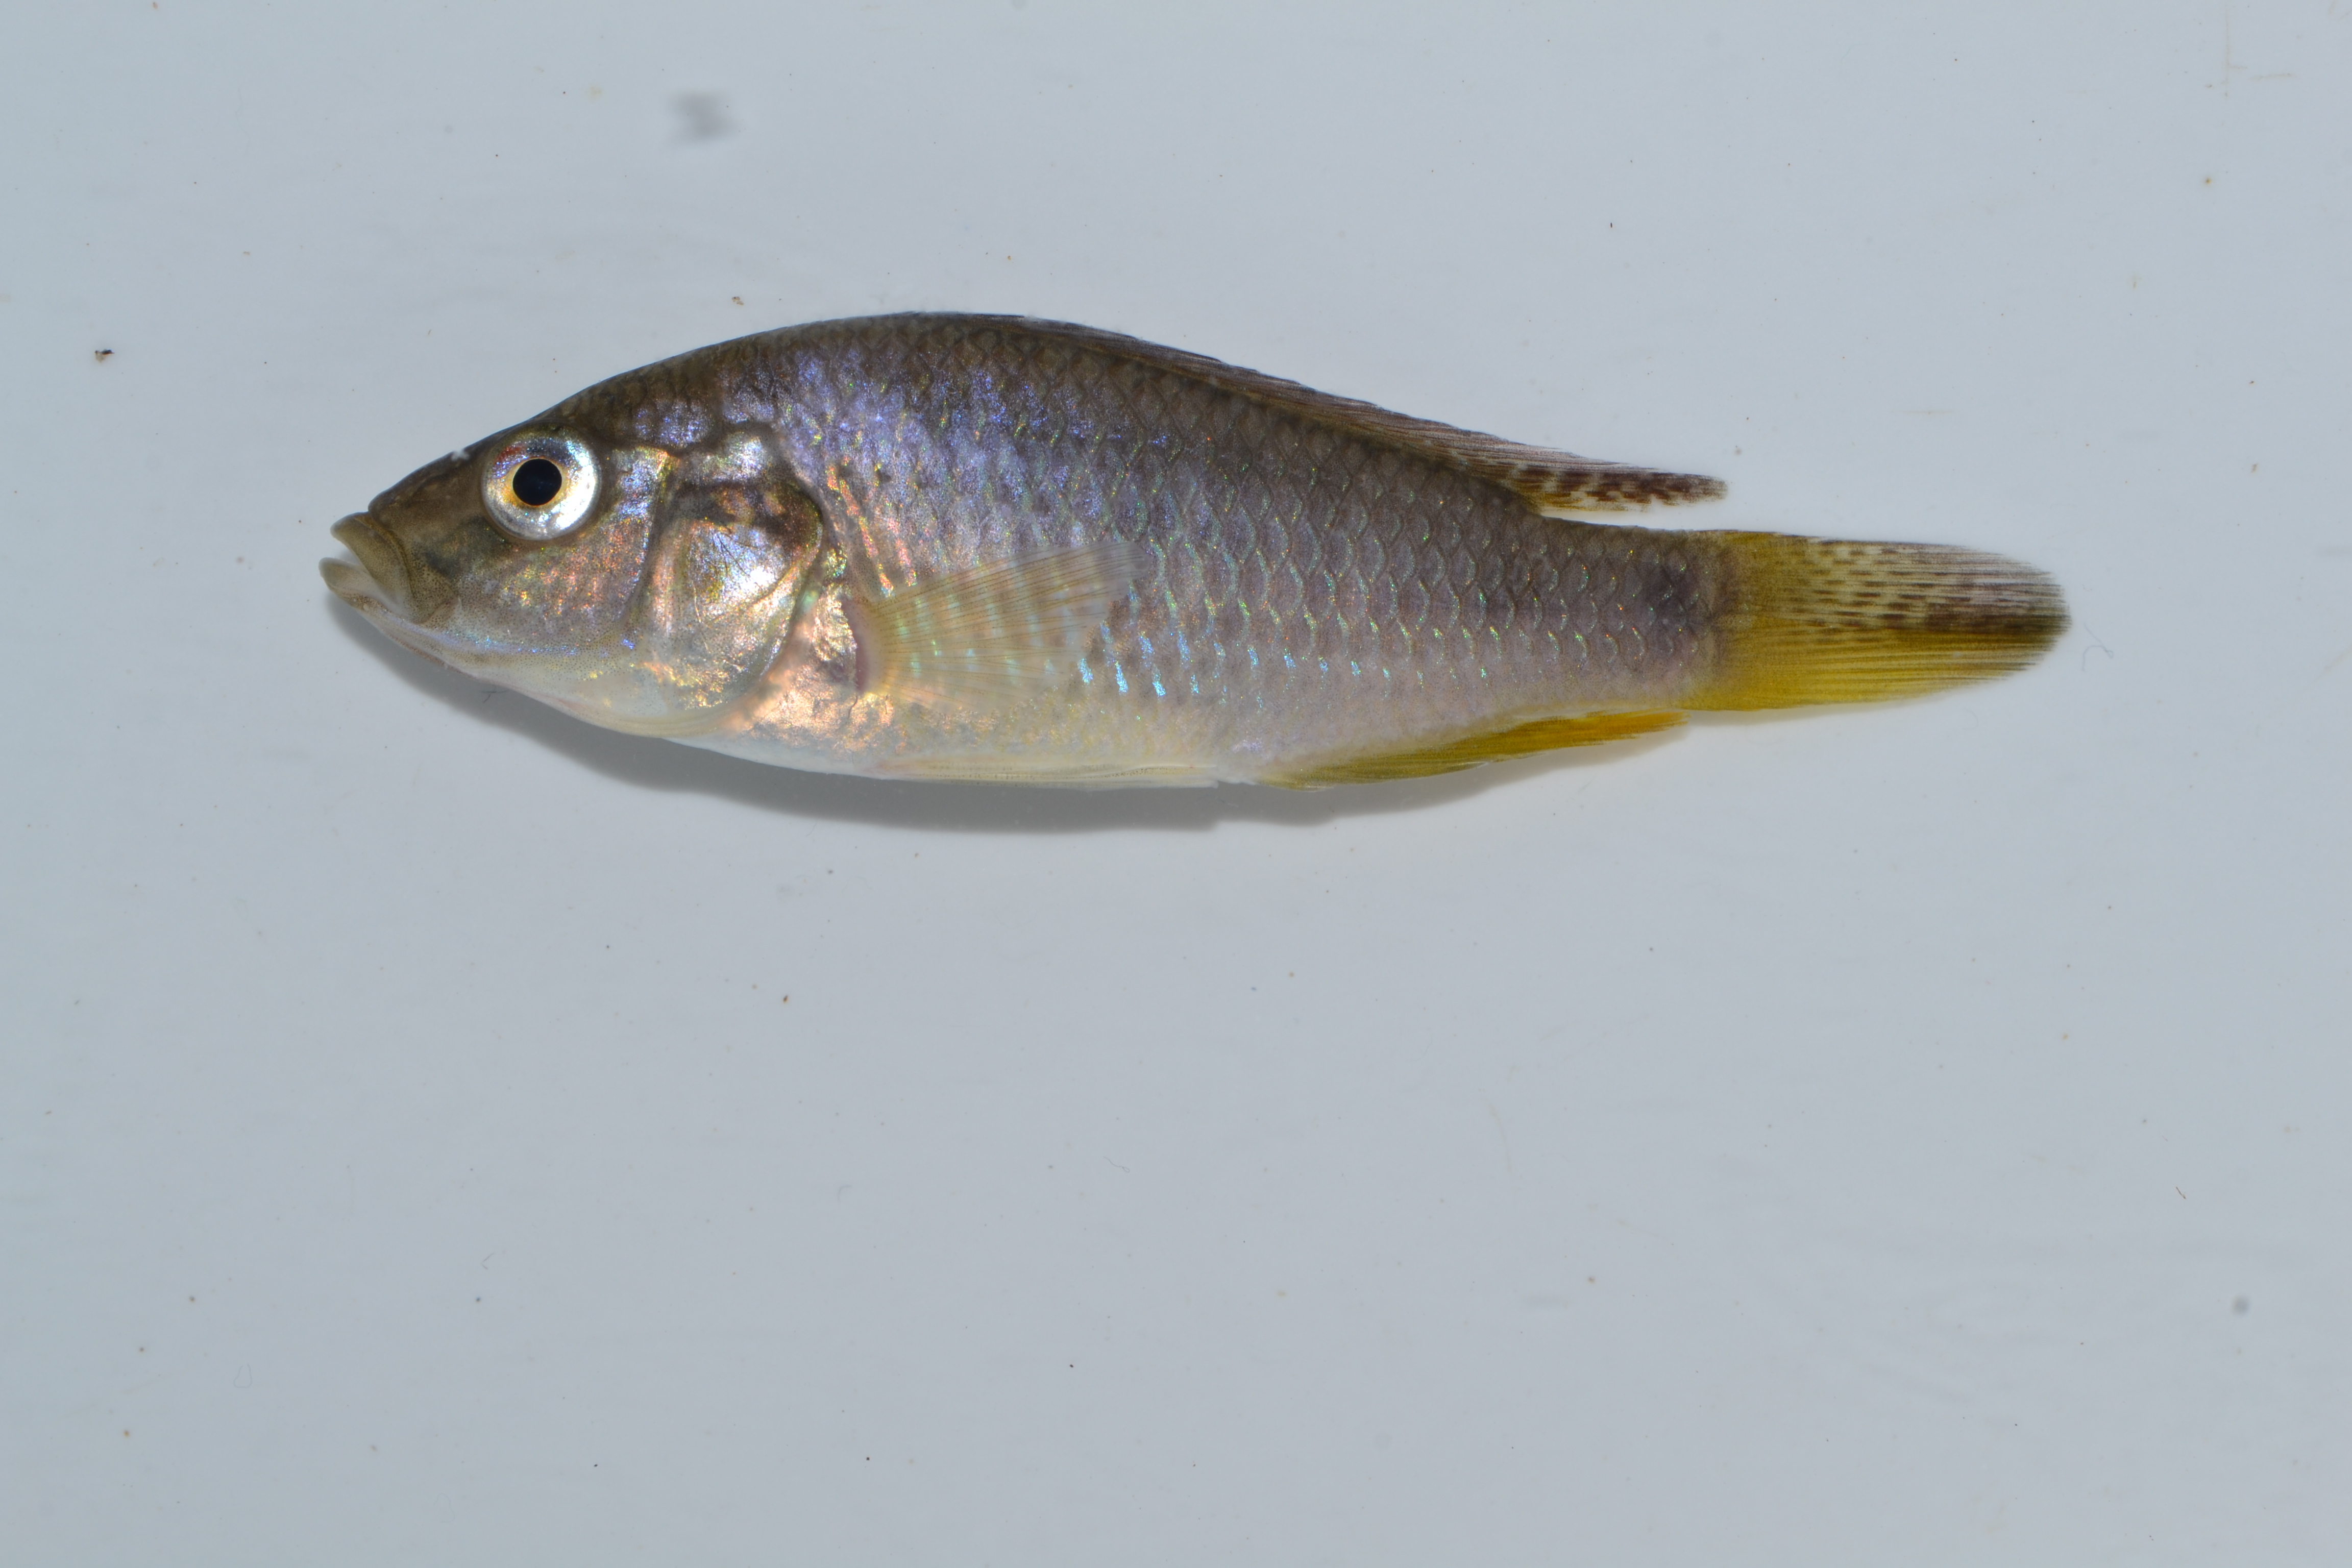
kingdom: Animalia
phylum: Chordata
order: Perciformes
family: Cichlidae
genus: Pseudocrenilabrus
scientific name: Pseudocrenilabrus philander
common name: Southern mouthbrooder
